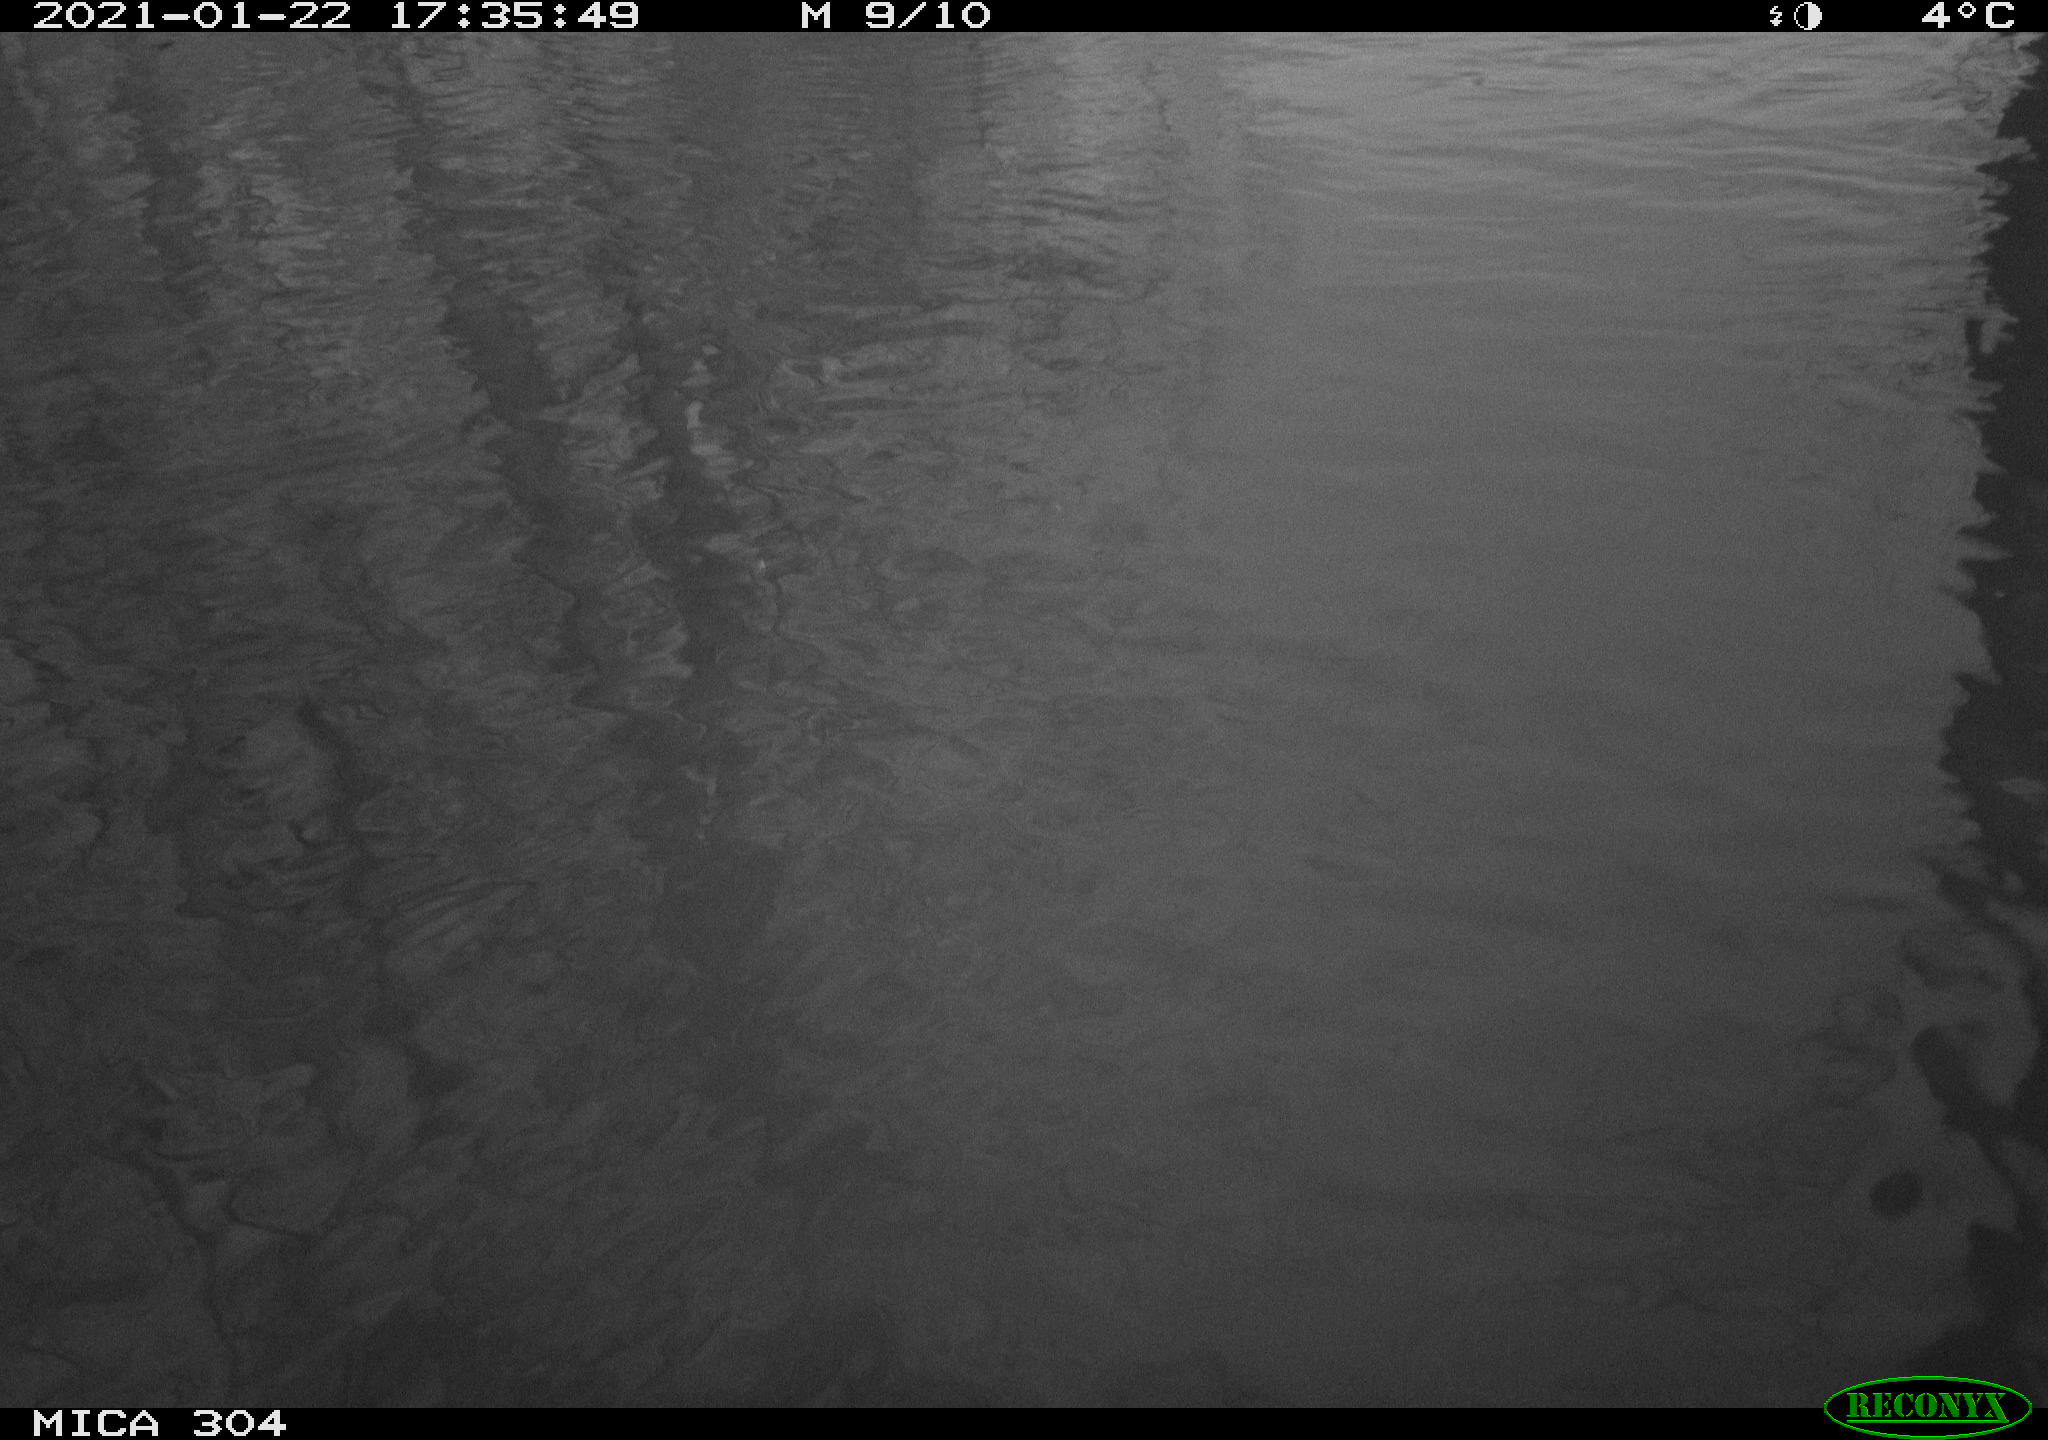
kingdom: Animalia
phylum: Chordata
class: Aves
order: Gruiformes
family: Rallidae
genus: Fulica
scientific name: Fulica atra
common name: Eurasian coot
